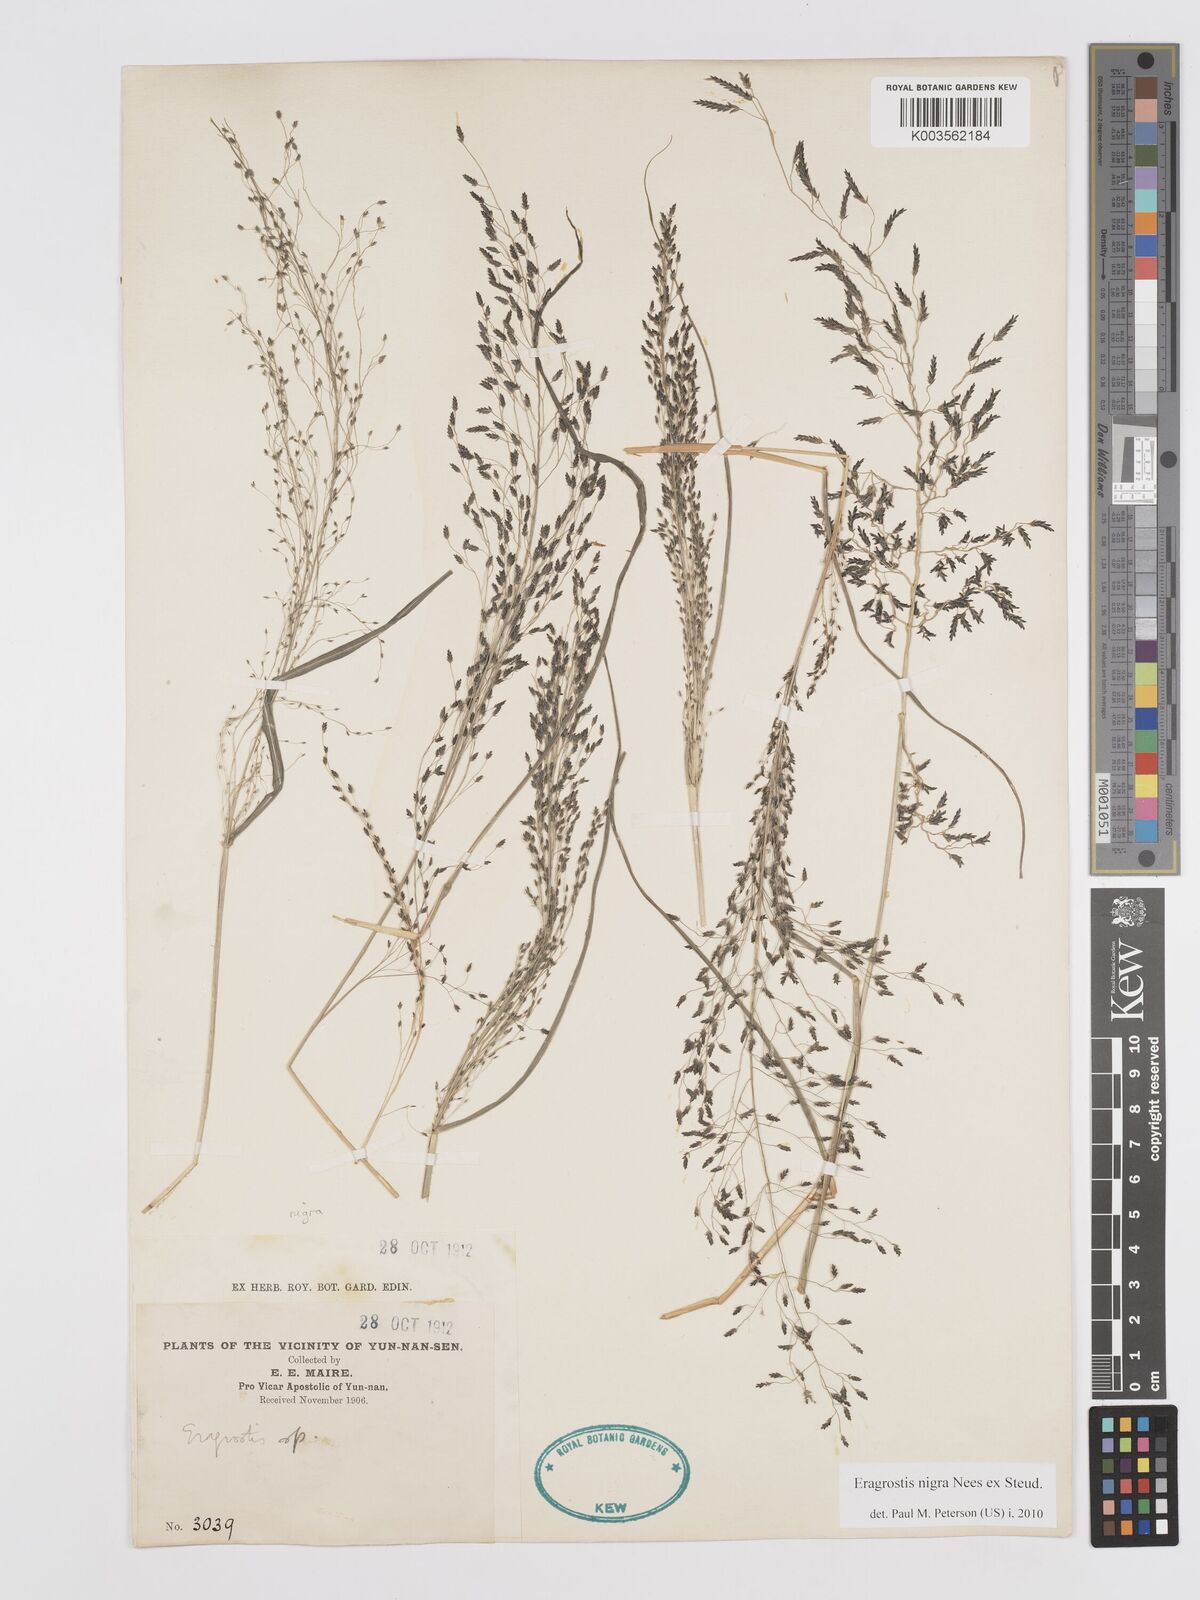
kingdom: Plantae
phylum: Tracheophyta
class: Liliopsida
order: Poales
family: Poaceae
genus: Eragrostis
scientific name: Eragrostis nigra
